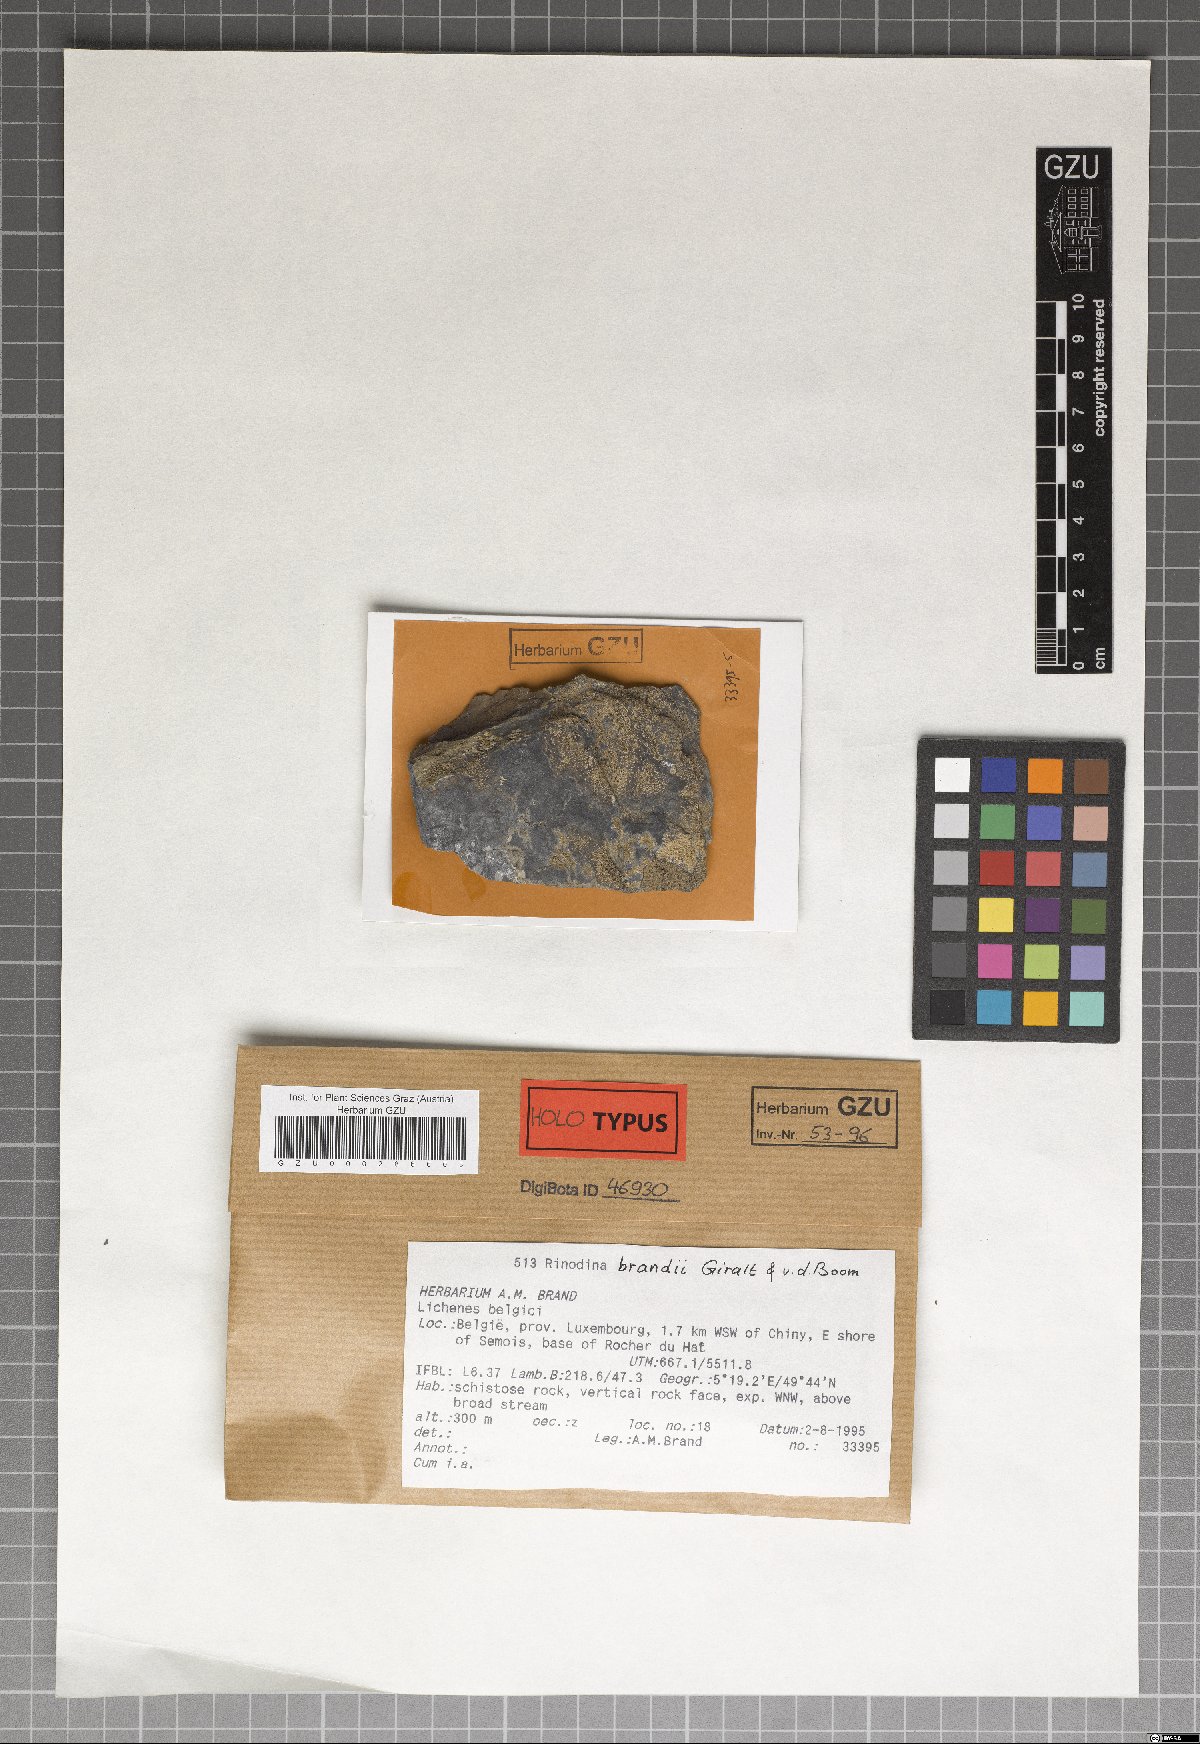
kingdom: Fungi
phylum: Ascomycota
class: Lecanoromycetes
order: Caliciales
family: Physciaceae
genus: Rinodina
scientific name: Rinodina brattii
